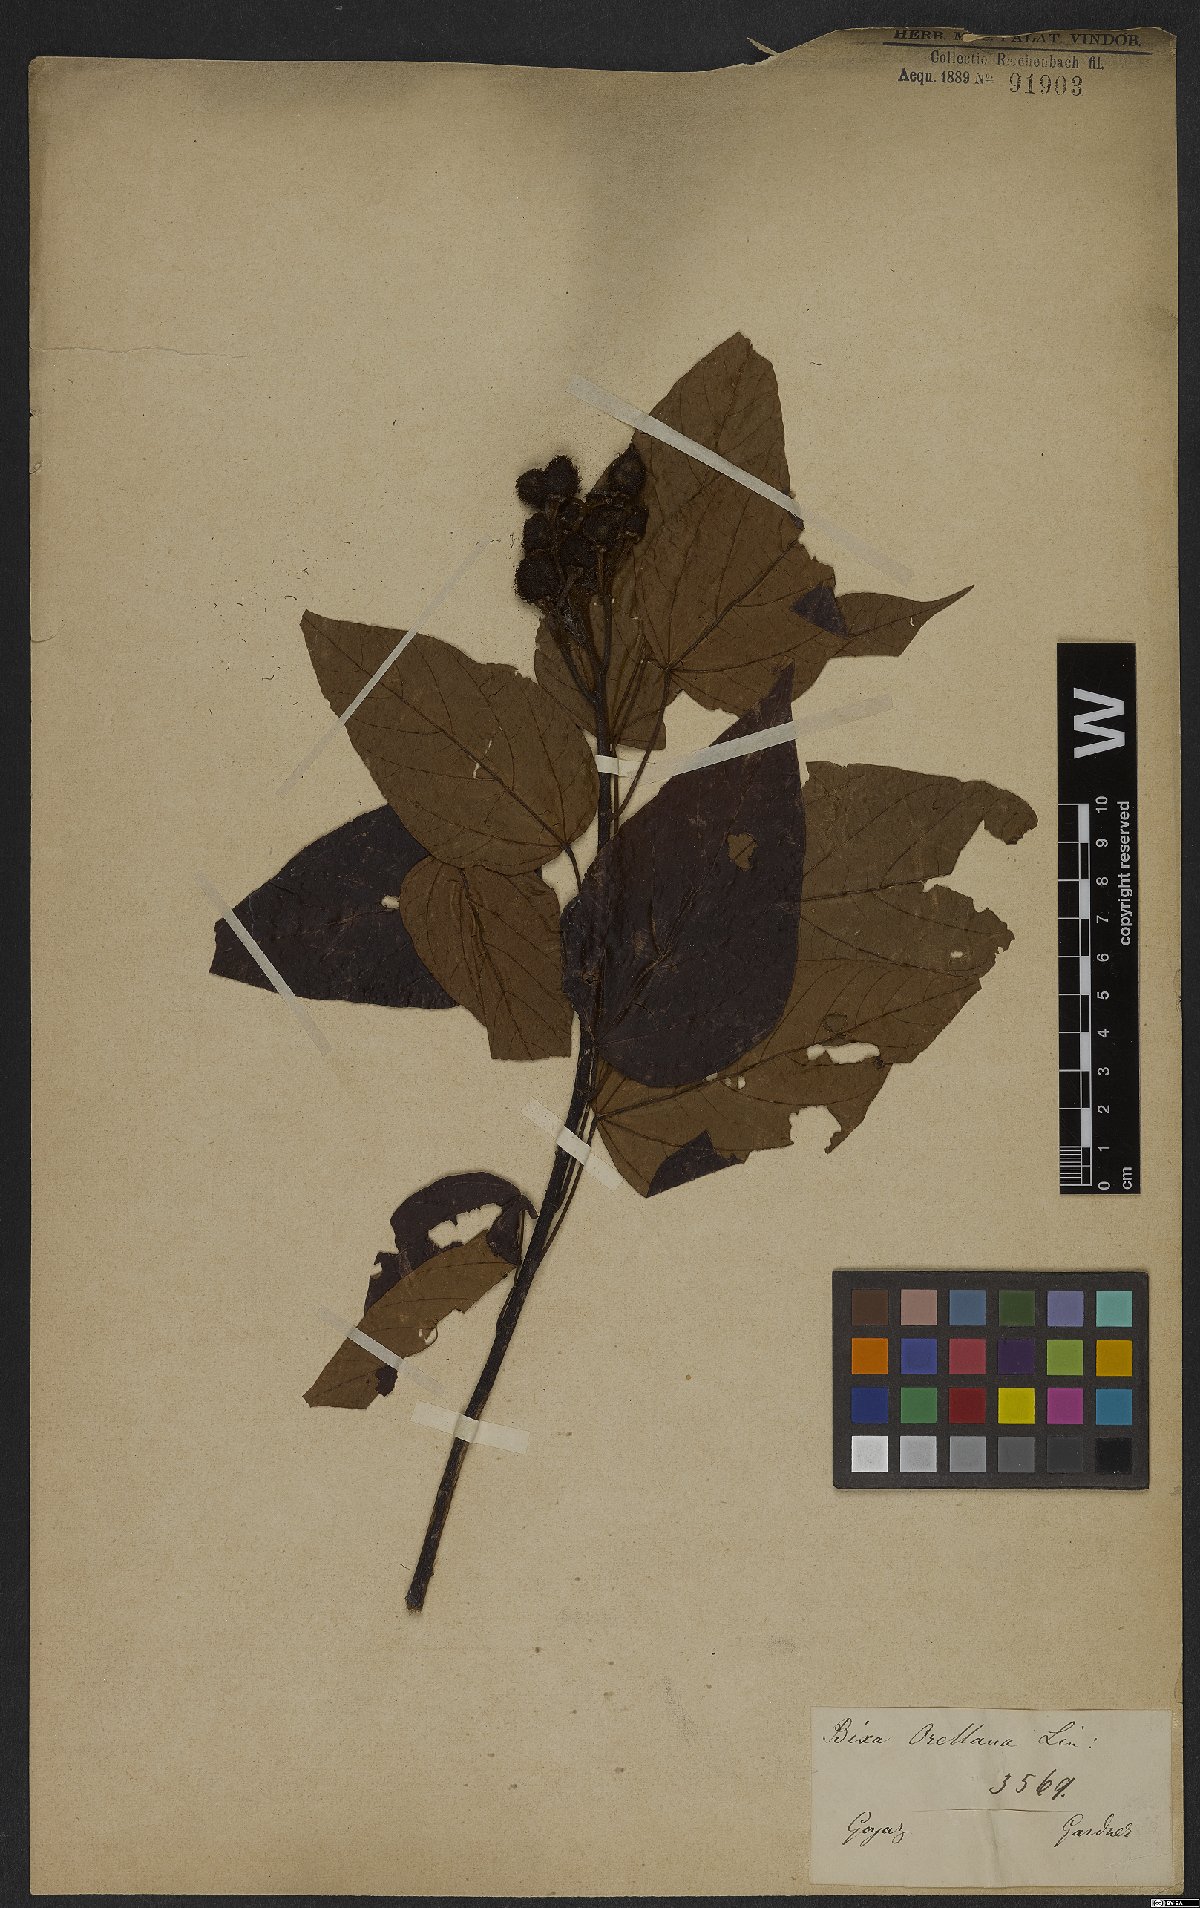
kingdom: Plantae
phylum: Tracheophyta
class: Magnoliopsida
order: Malvales
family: Bixaceae
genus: Bixa
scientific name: Bixa orellana
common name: Lipsticktree
